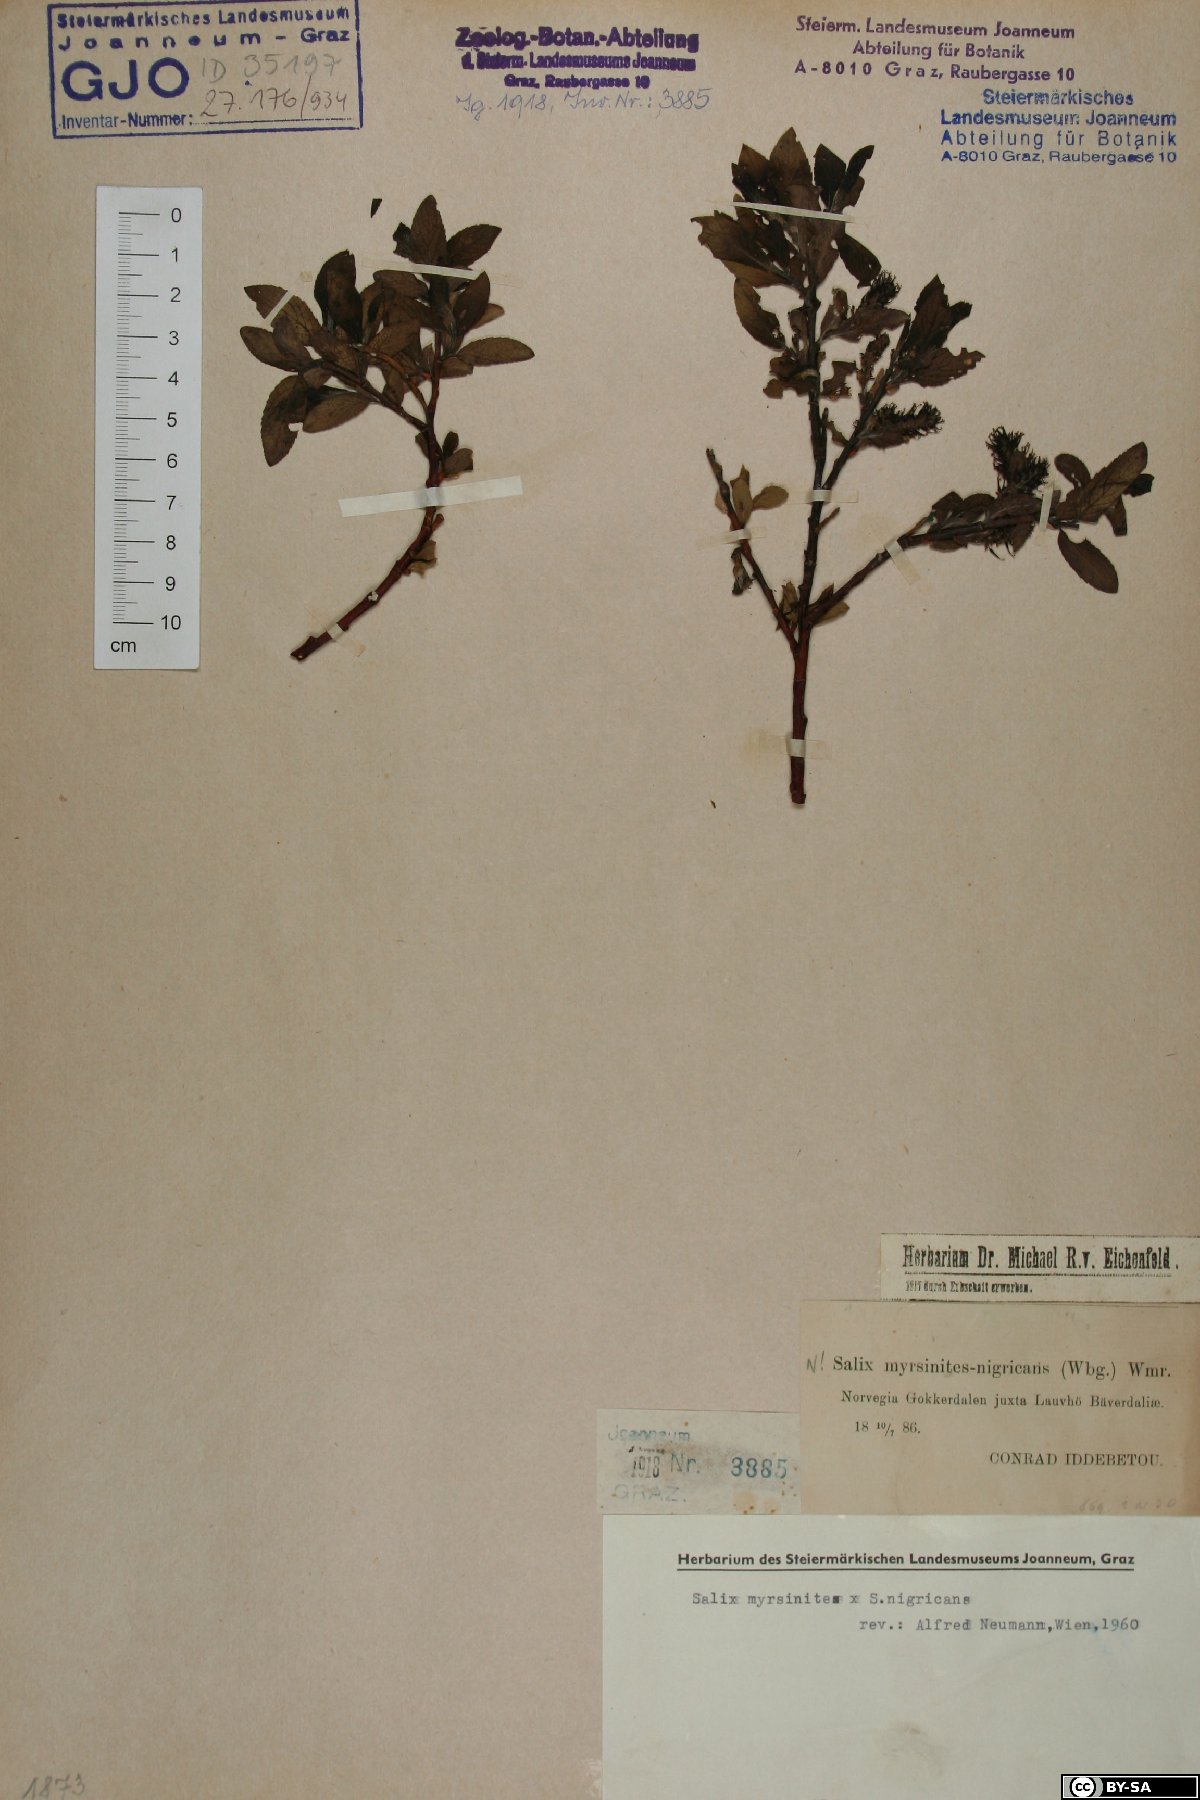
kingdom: Plantae
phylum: Tracheophyta
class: Magnoliopsida
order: Malpighiales
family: Salicaceae
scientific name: Salicaceae
